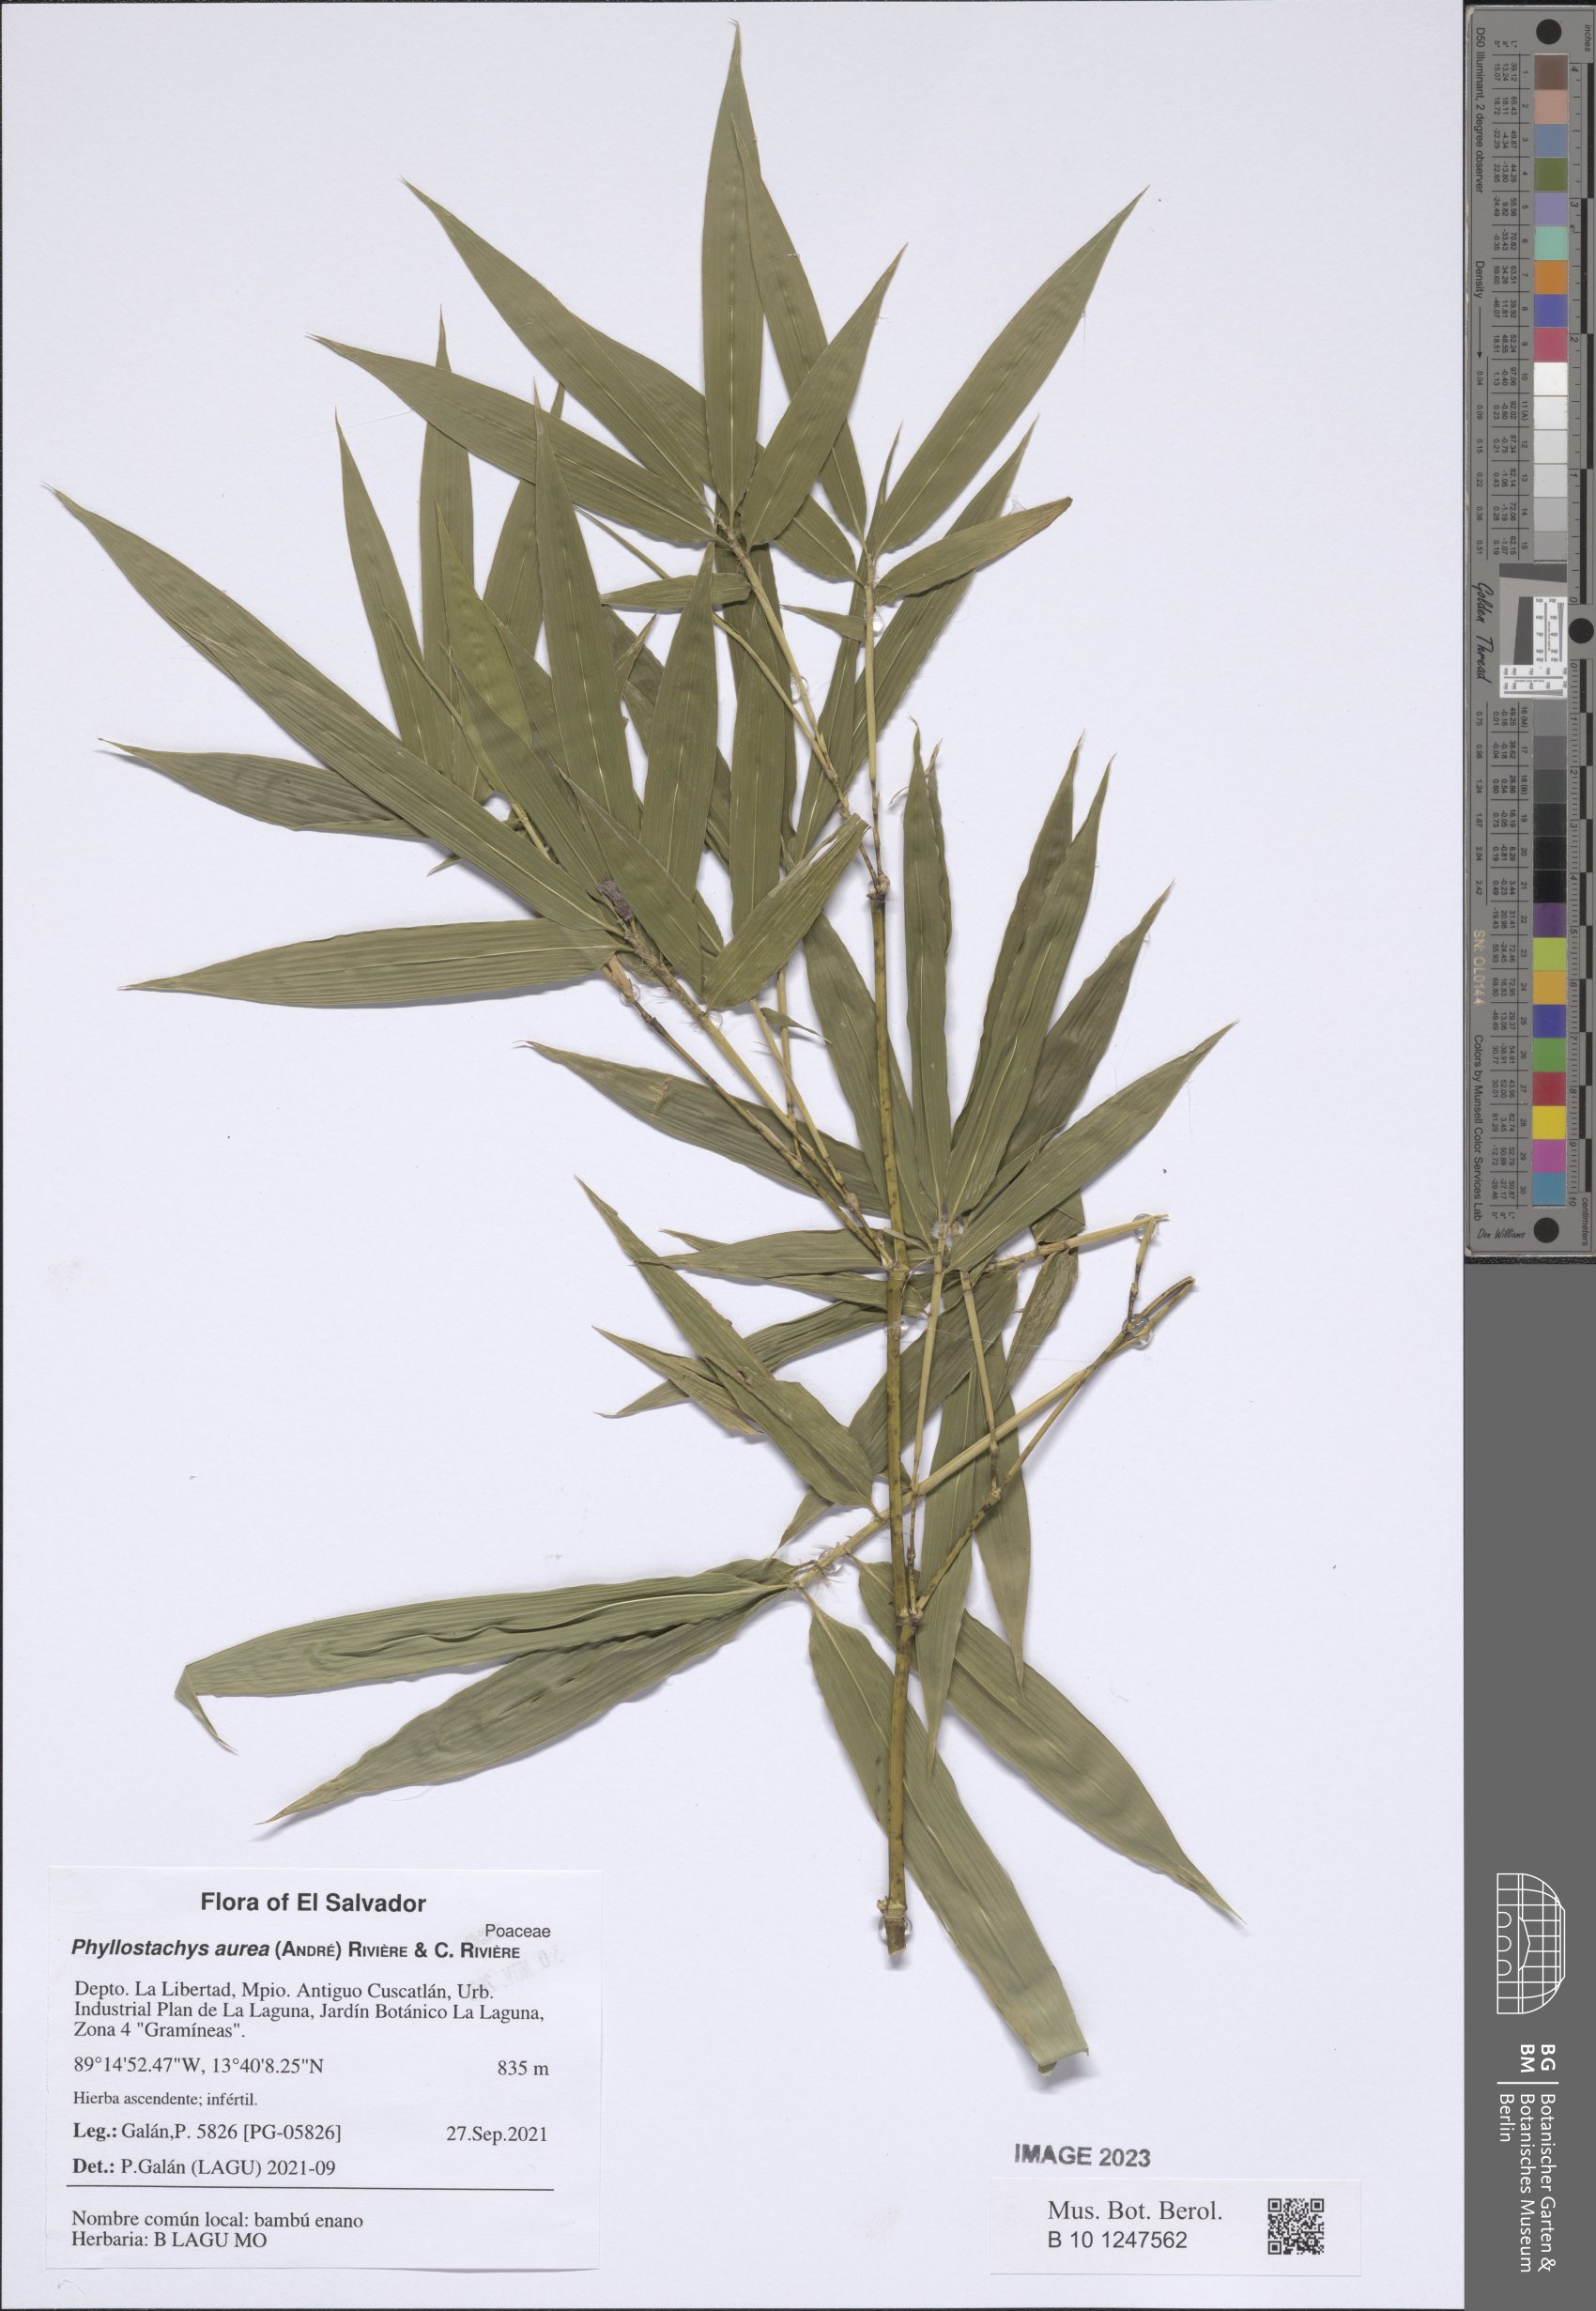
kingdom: Plantae
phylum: Tracheophyta
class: Liliopsida
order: Poales
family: Poaceae
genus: Phyllostachys
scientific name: Phyllostachys aurea
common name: Golden bamboo
